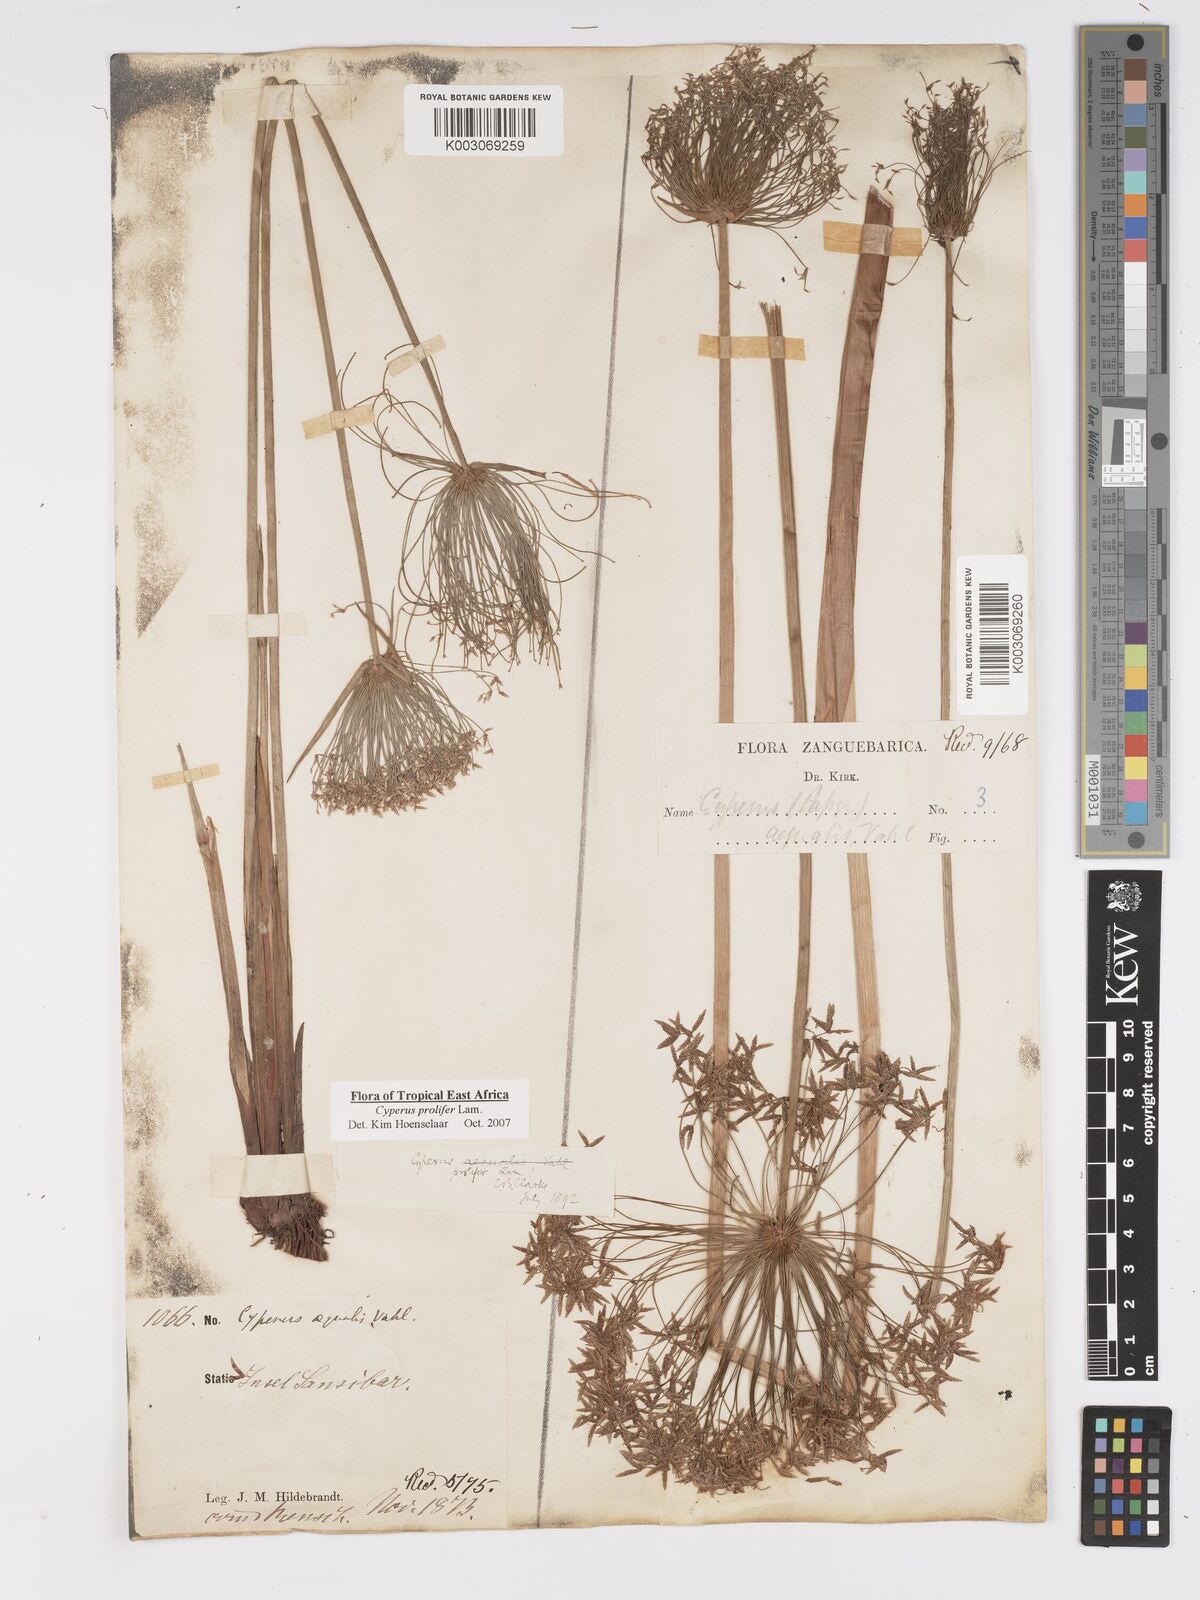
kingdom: Plantae
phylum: Tracheophyta
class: Liliopsida
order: Poales
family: Cyperaceae
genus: Cyperus
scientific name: Cyperus prolifer
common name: Miniature flatsedge
